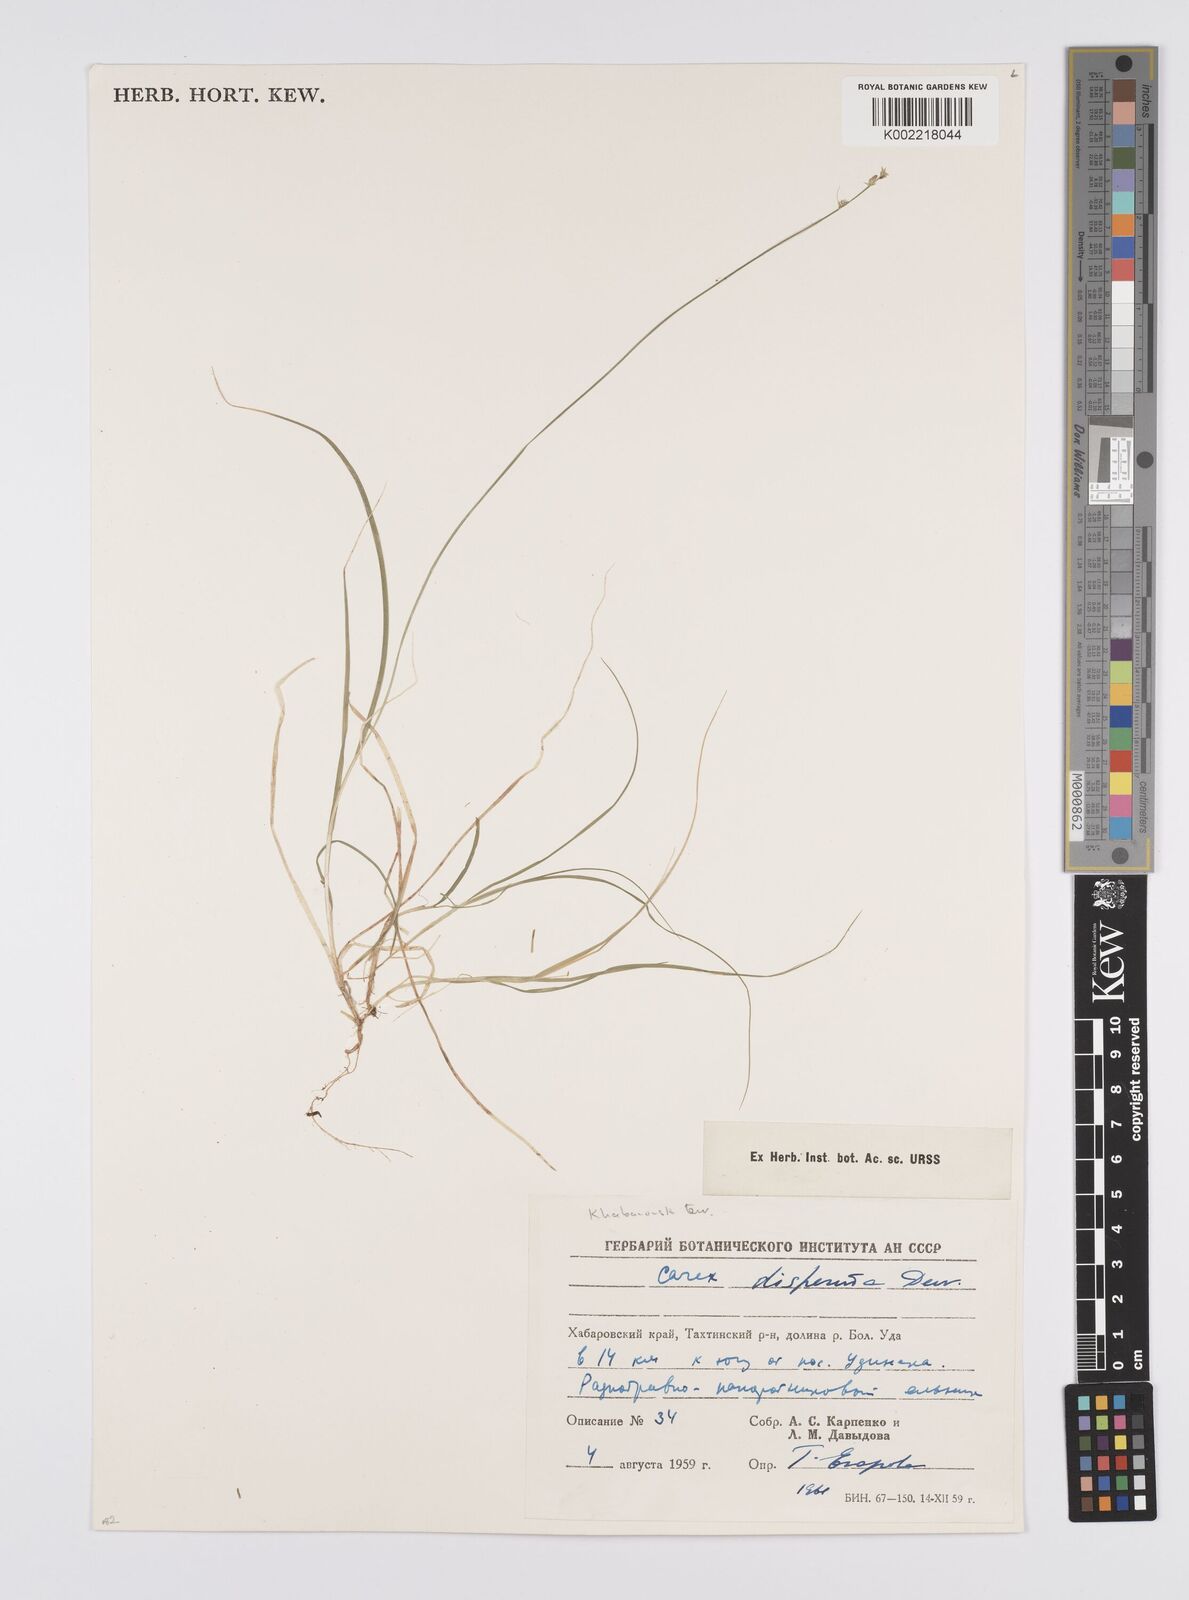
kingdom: Plantae
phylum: Tracheophyta
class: Liliopsida
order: Poales
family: Cyperaceae
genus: Carex
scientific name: Carex disperma
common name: Short-leaved sedge
